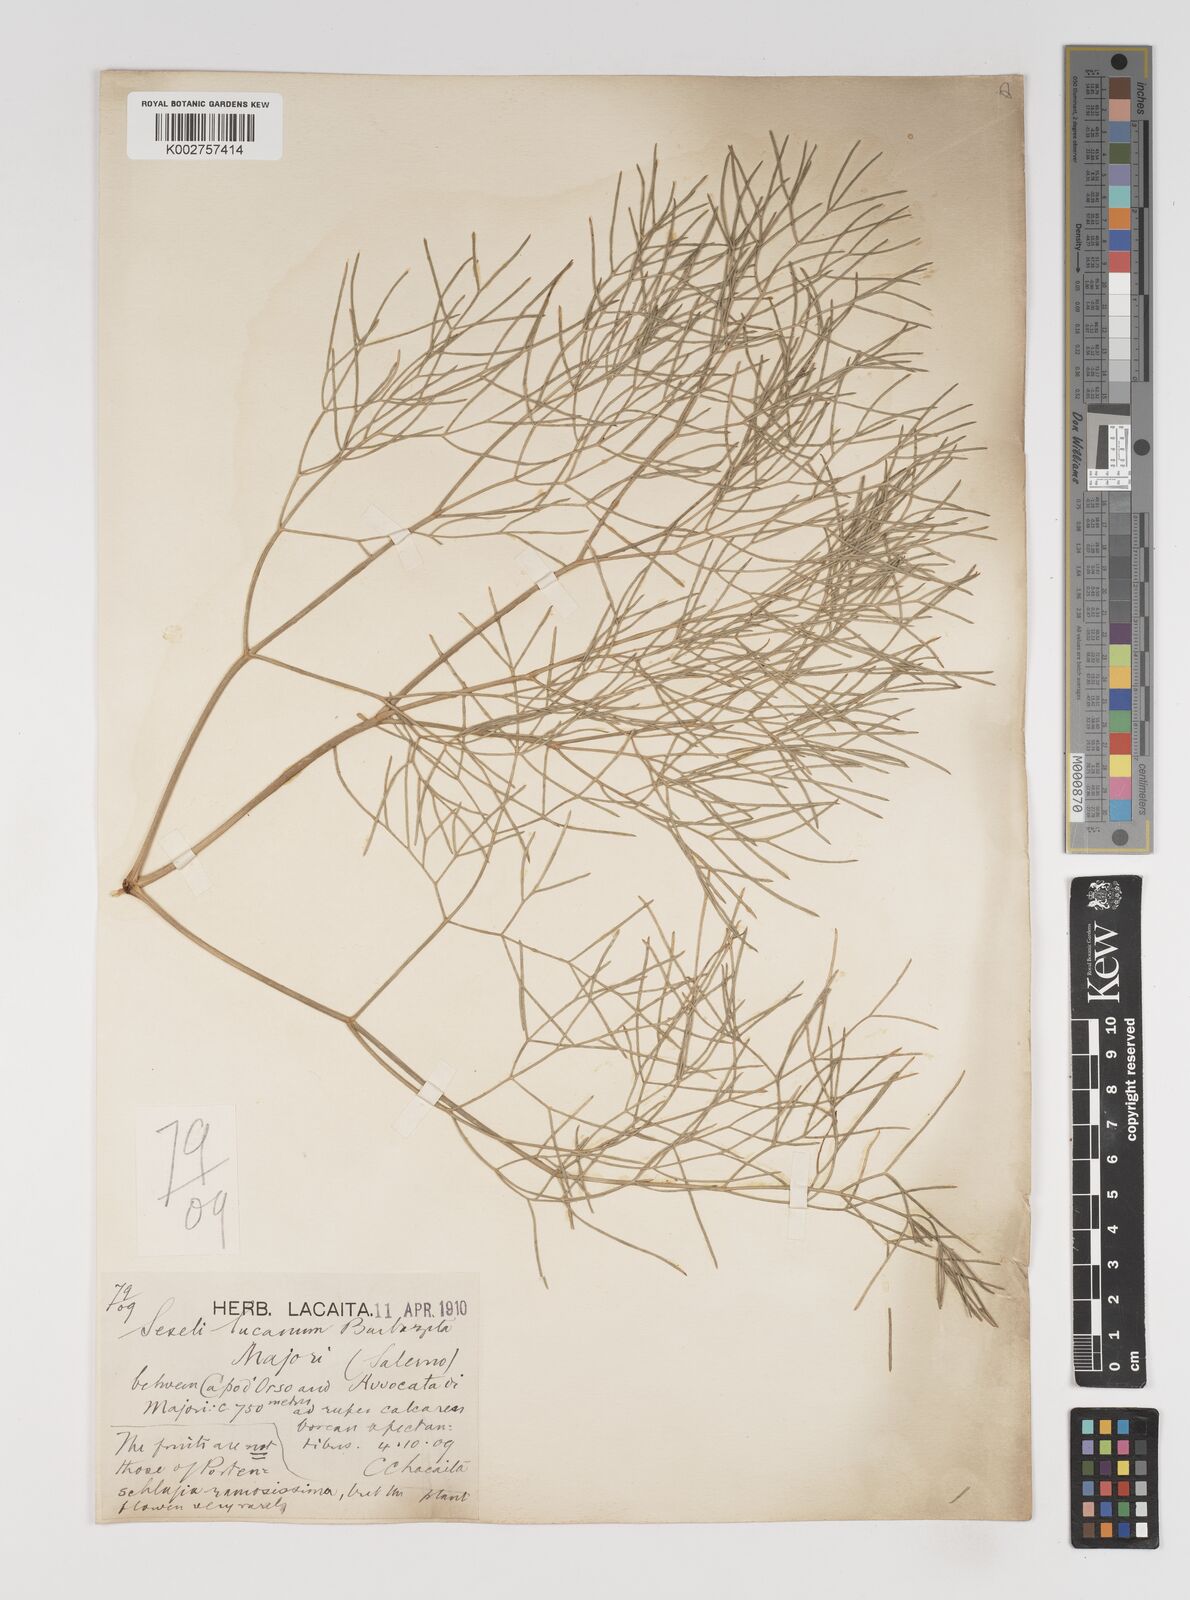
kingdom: Plantae
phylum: Tracheophyta
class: Magnoliopsida
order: Apiales
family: Apiaceae
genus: Athamanta
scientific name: Athamanta ramosissima
